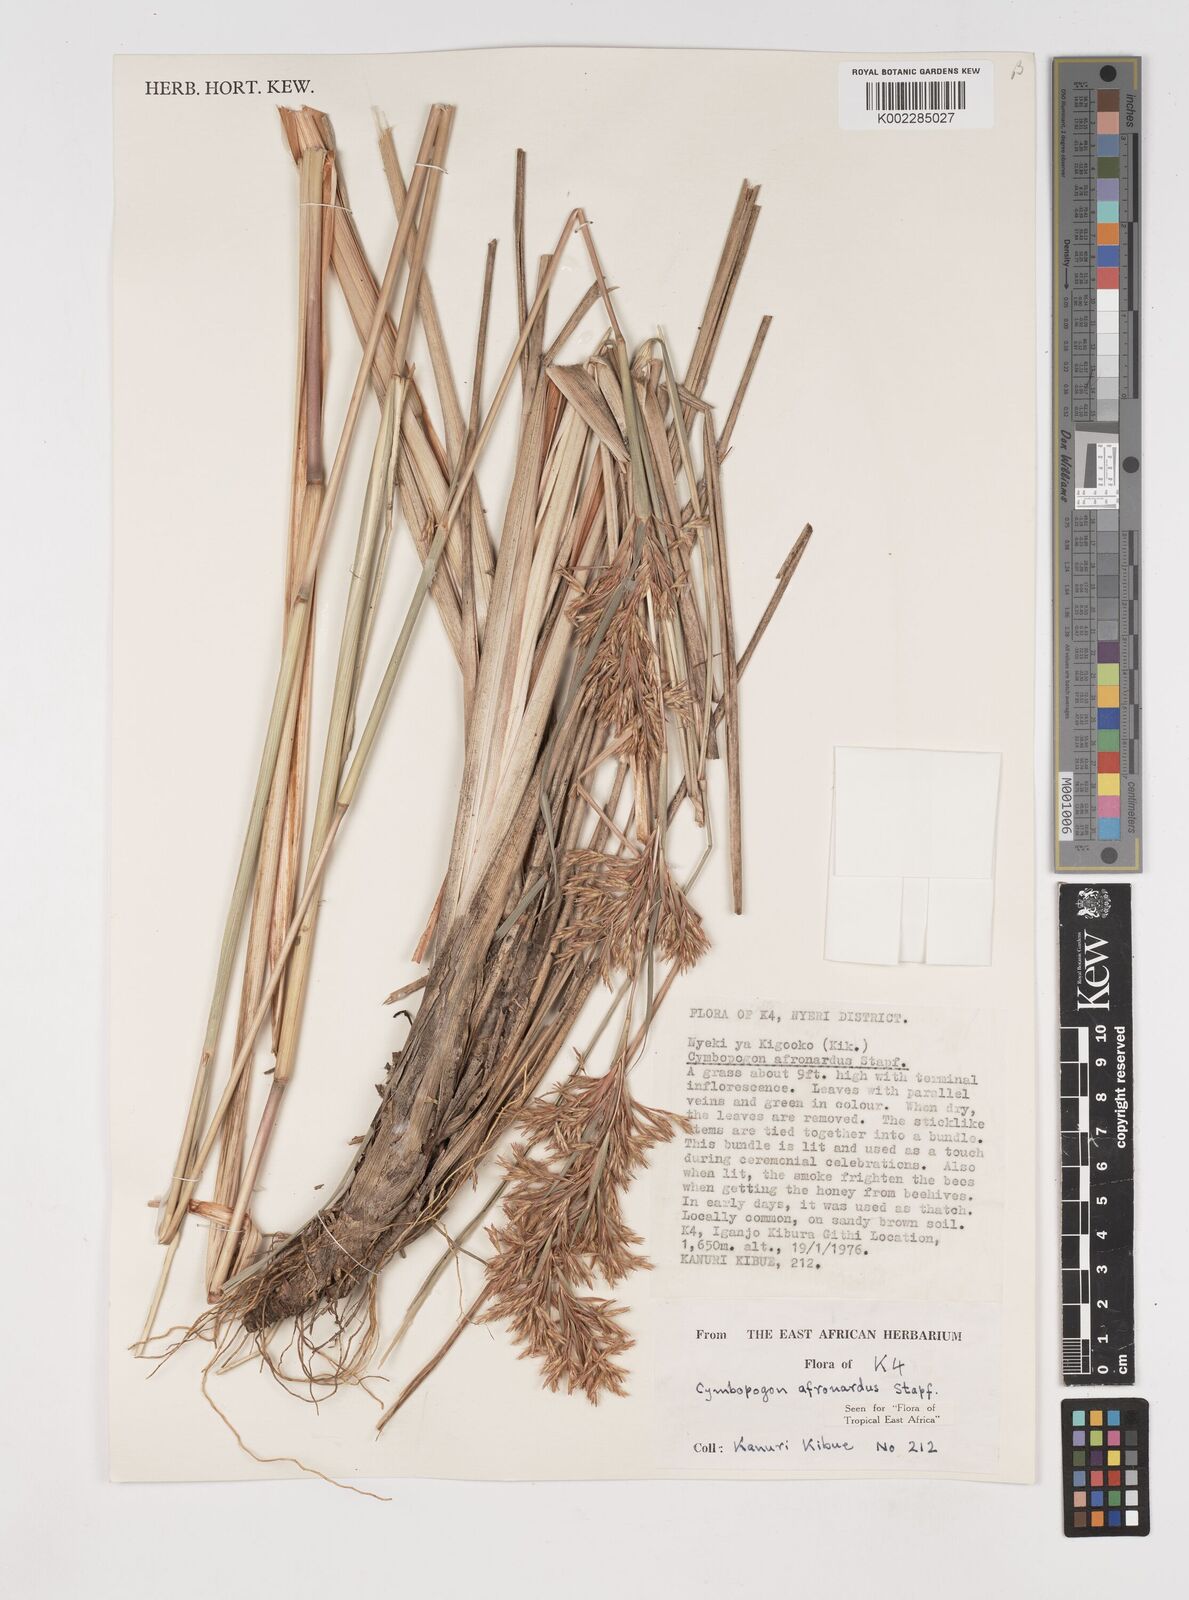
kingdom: Plantae
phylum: Tracheophyta
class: Liliopsida
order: Poales
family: Poaceae
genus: Cymbopogon
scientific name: Cymbopogon
